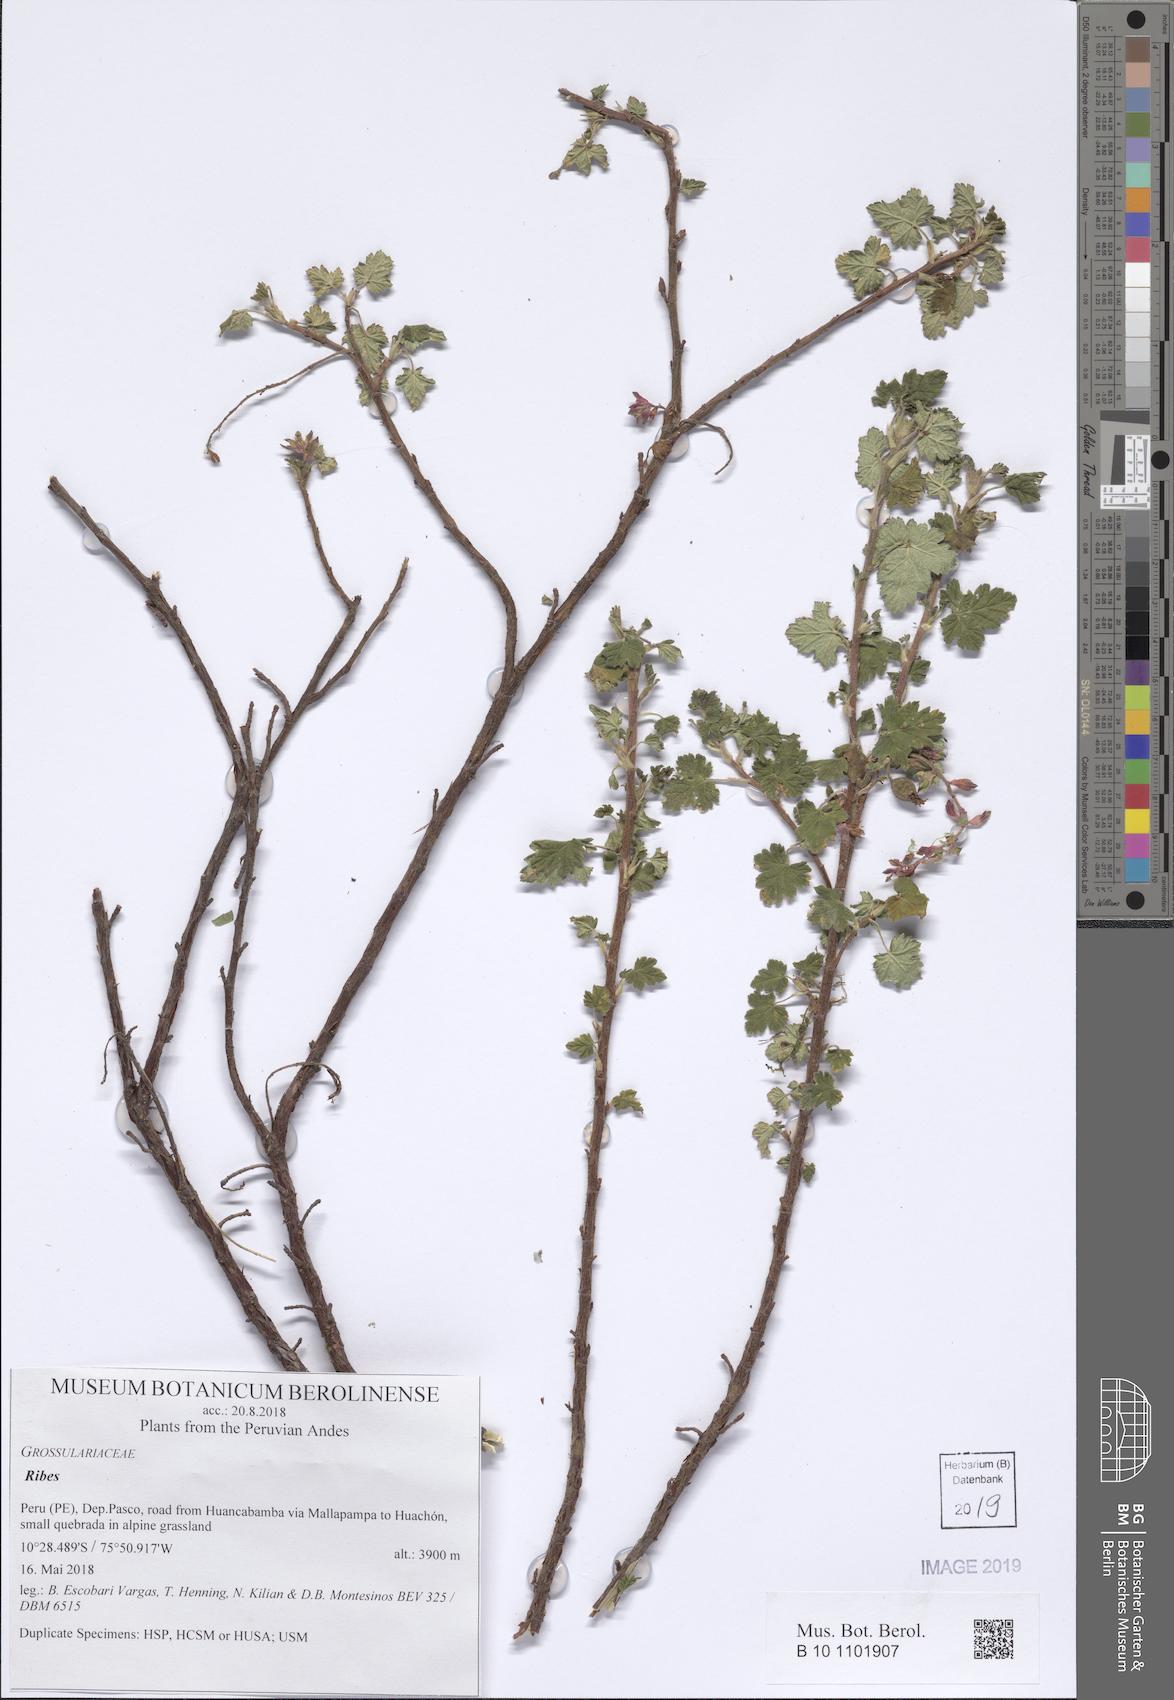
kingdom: Plantae
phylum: Tracheophyta
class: Magnoliopsida
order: Saxifragales
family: Grossulariaceae
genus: Ribes
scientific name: Ribes
